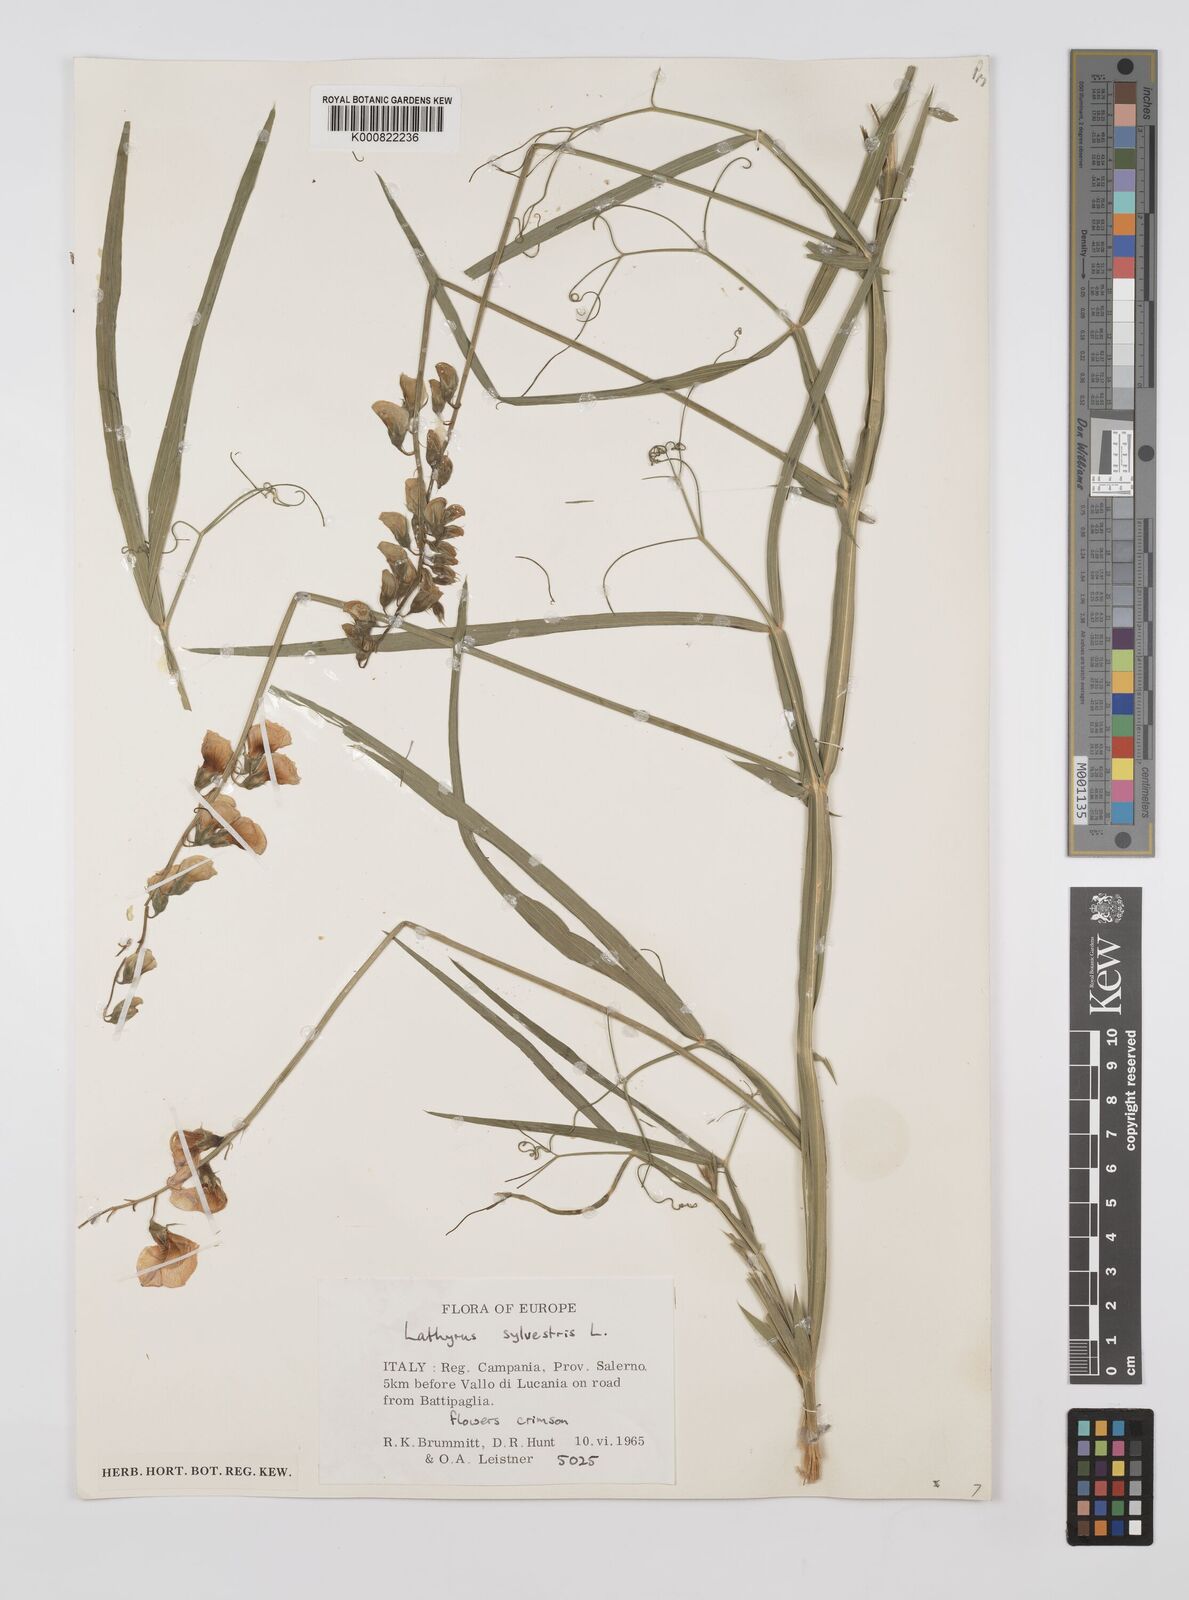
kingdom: Plantae
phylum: Tracheophyta
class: Magnoliopsida
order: Fabales
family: Fabaceae
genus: Lathyrus
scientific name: Lathyrus sylvestris
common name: Flat pea
